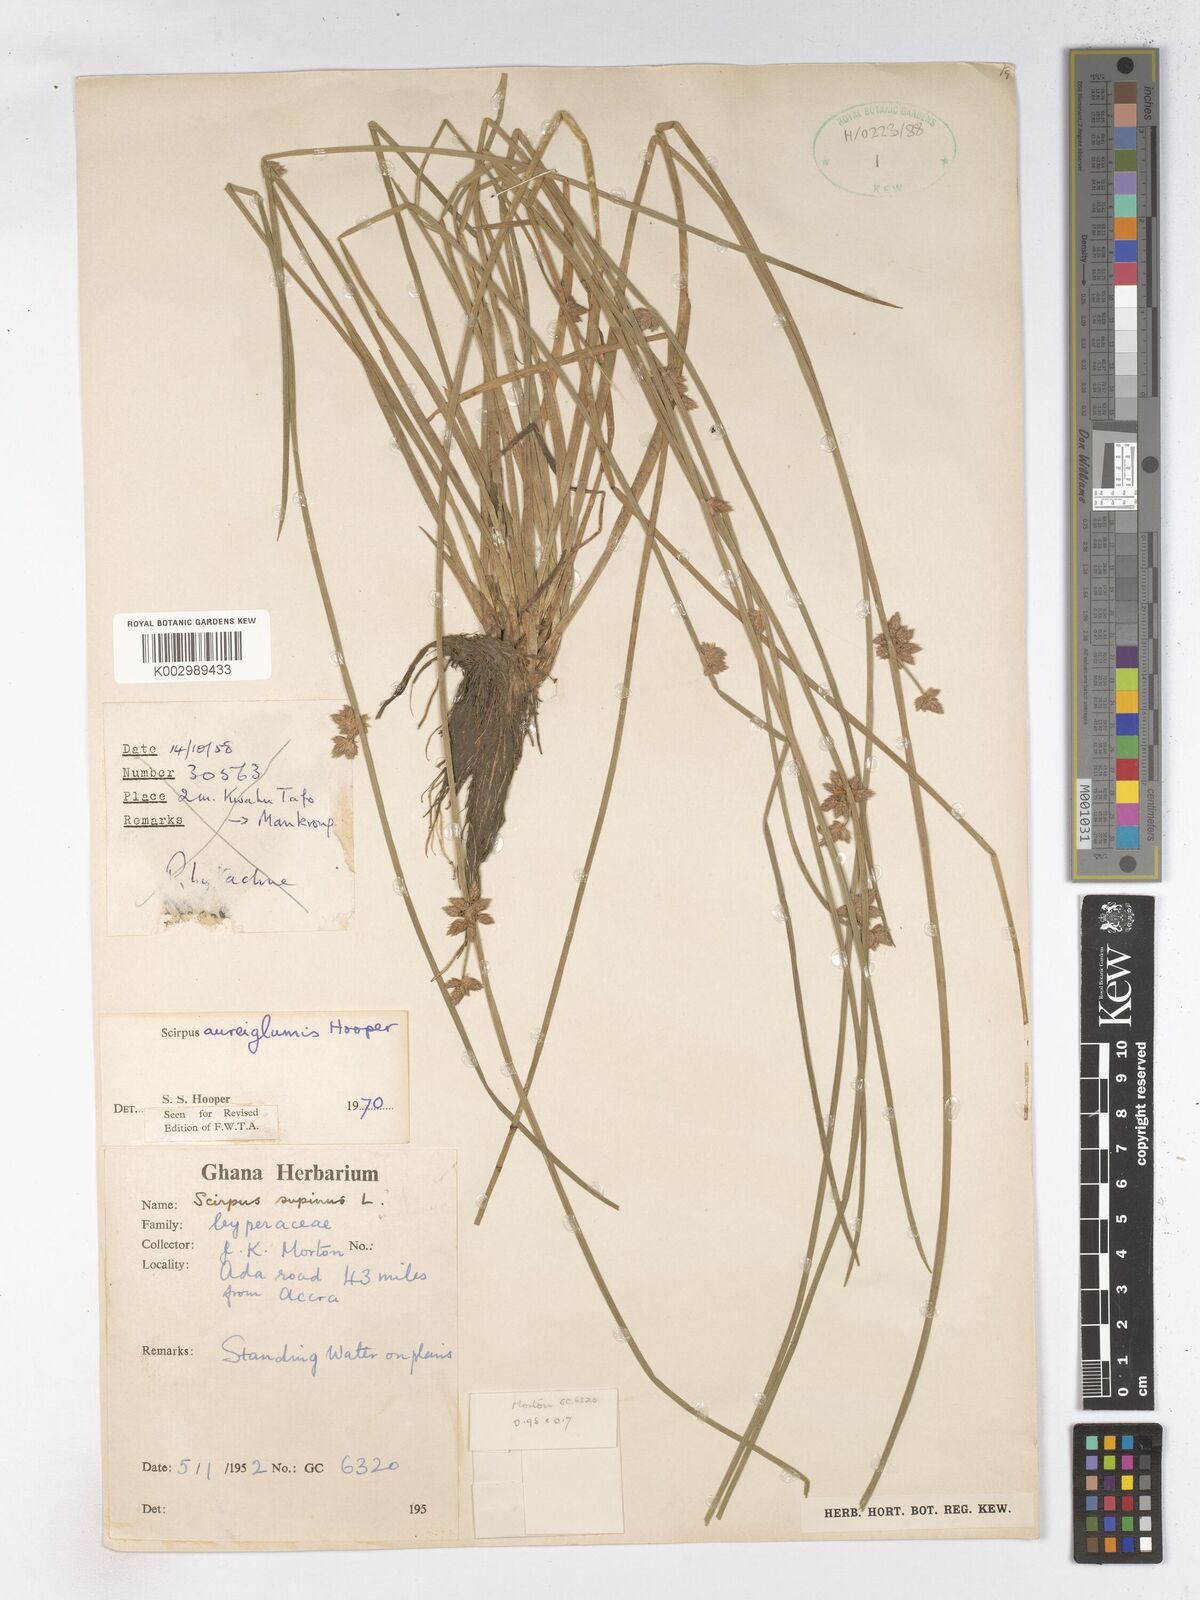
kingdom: Plantae
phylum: Tracheophyta
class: Liliopsida
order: Poales
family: Cyperaceae
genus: Schoenoplectiella
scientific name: Schoenoplectiella juncea
